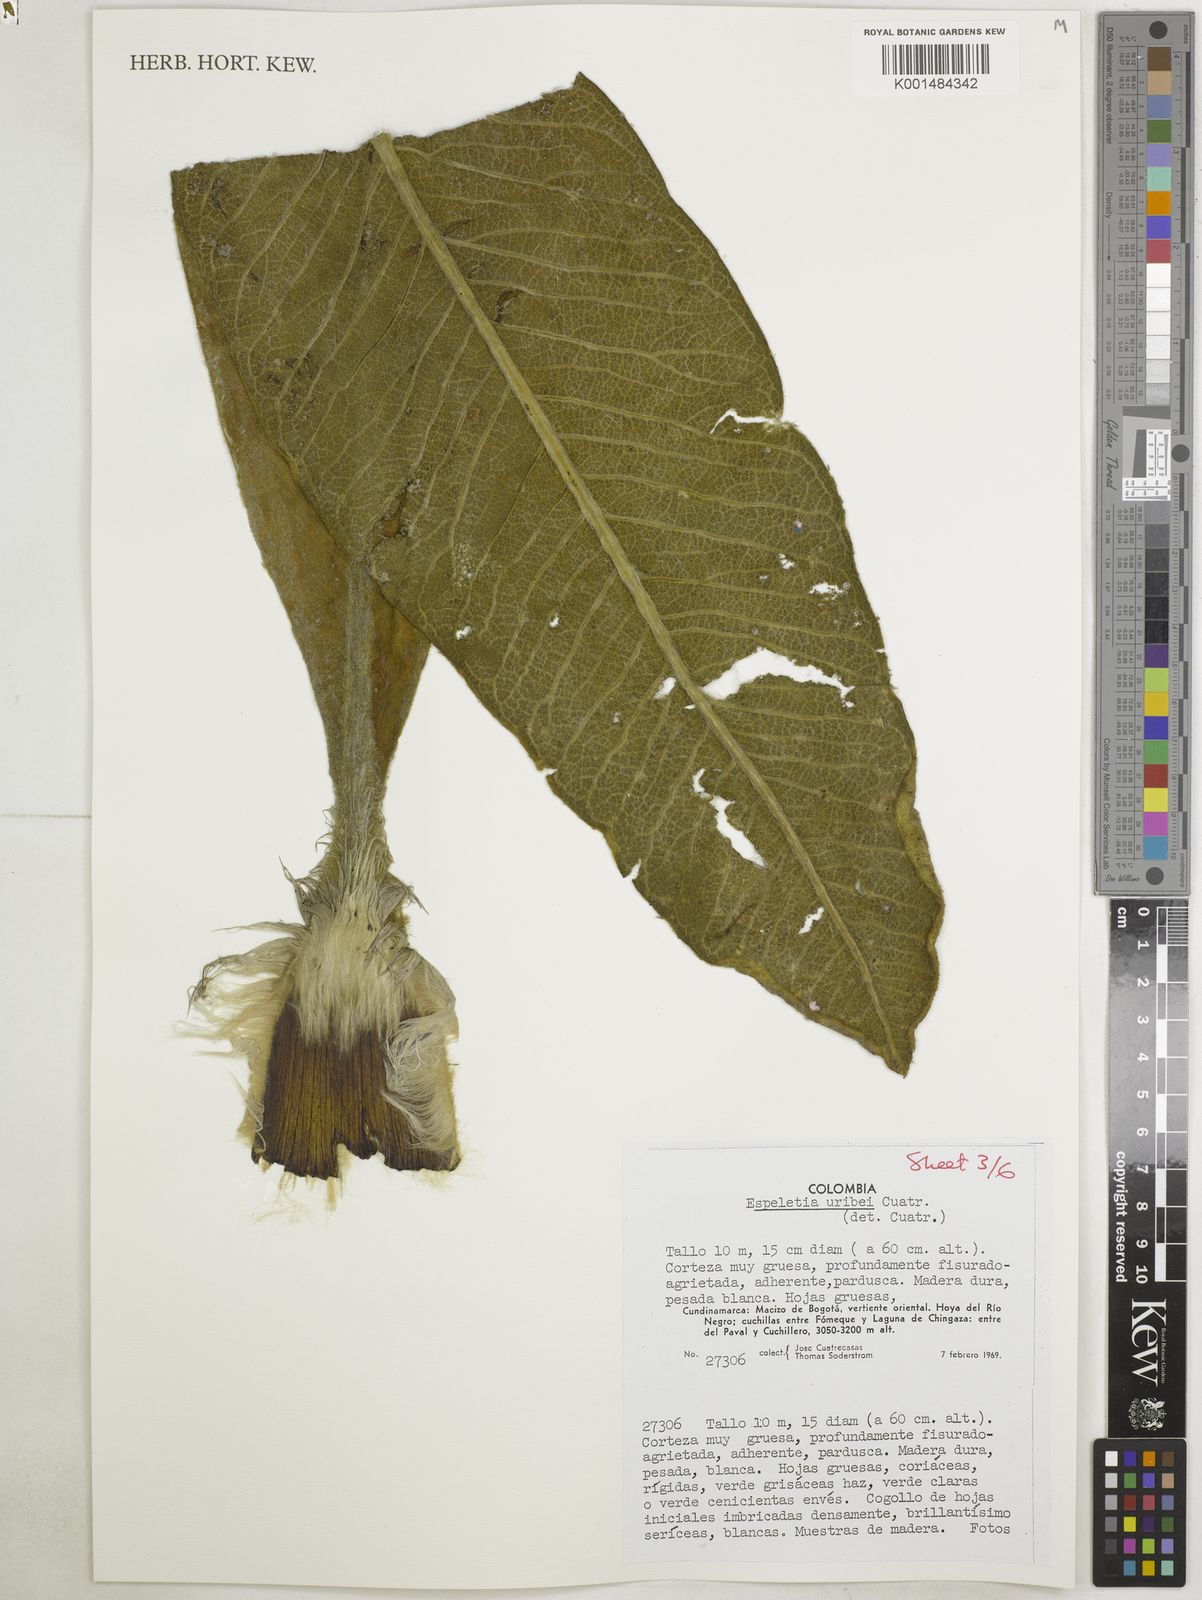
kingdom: Plantae
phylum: Tracheophyta
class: Magnoliopsida
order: Asterales
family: Asteraceae
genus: Espeletia
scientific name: Espeletia uribei
